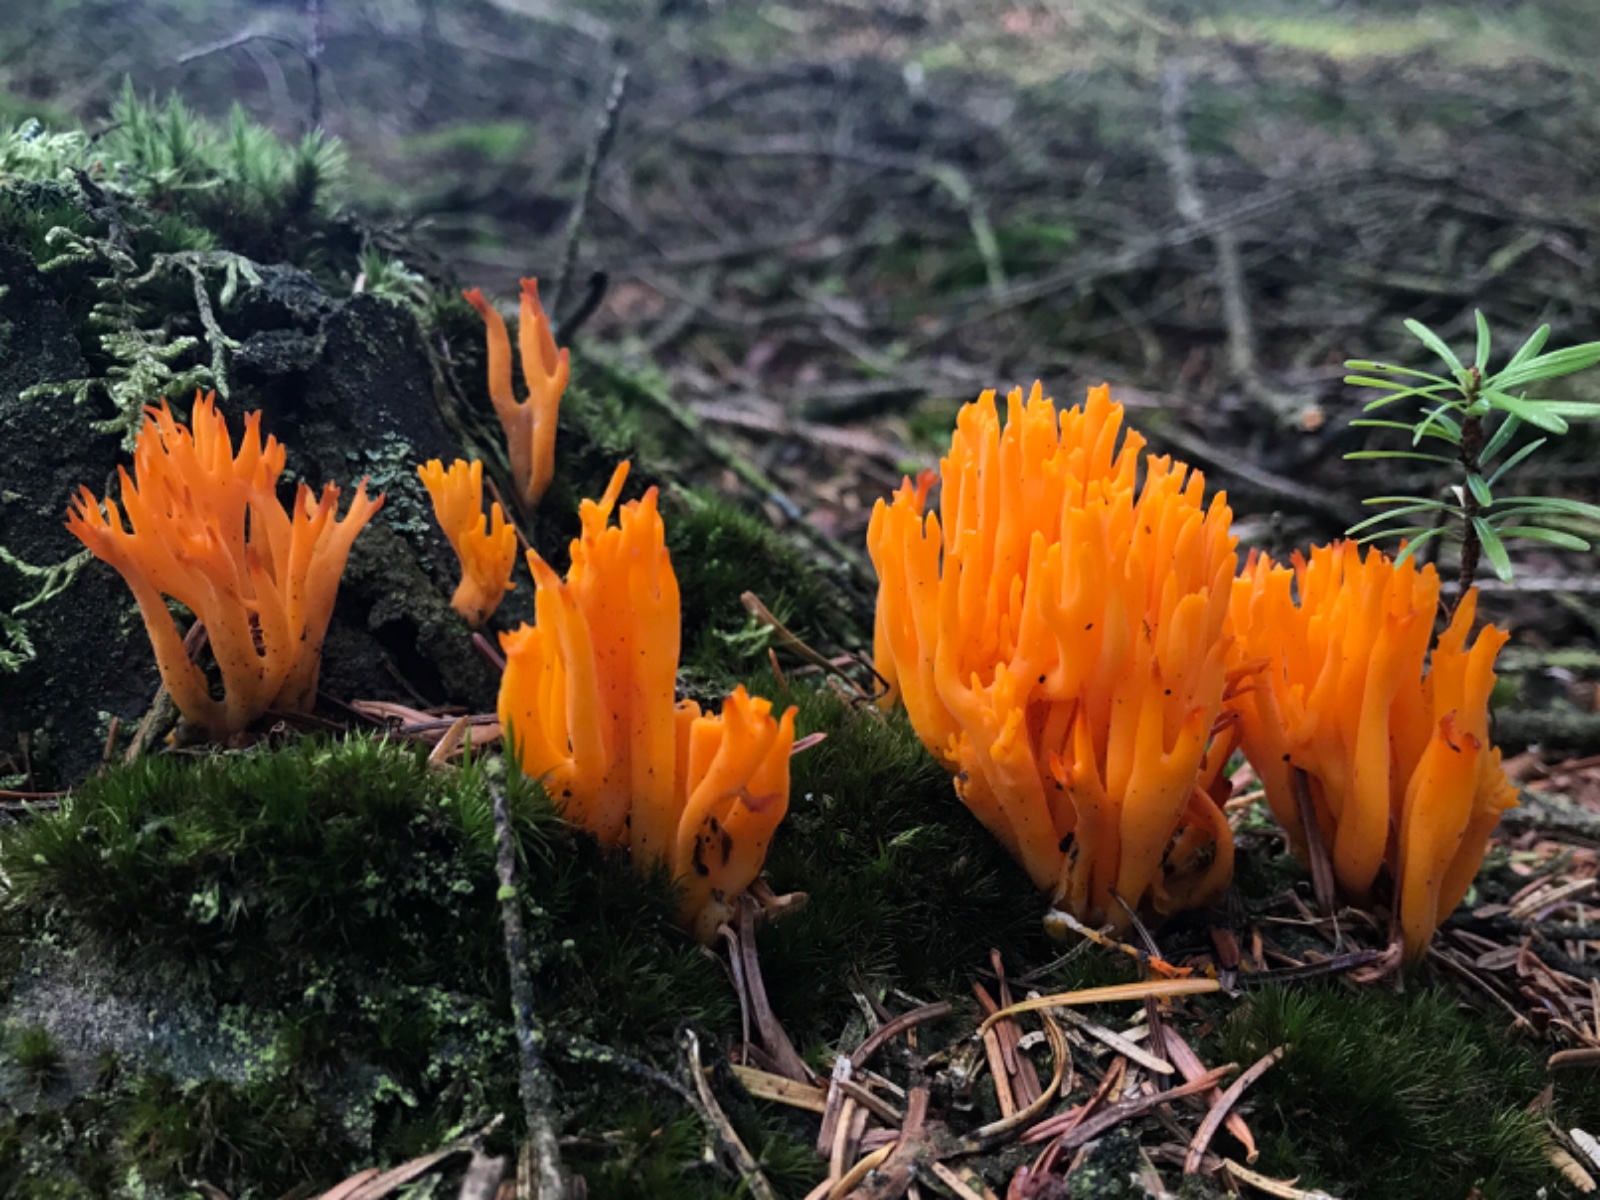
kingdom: Fungi
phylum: Basidiomycota
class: Dacrymycetes
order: Dacrymycetales
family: Dacrymycetaceae
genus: Calocera
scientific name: Calocera viscosa
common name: almindelig guldgaffel
